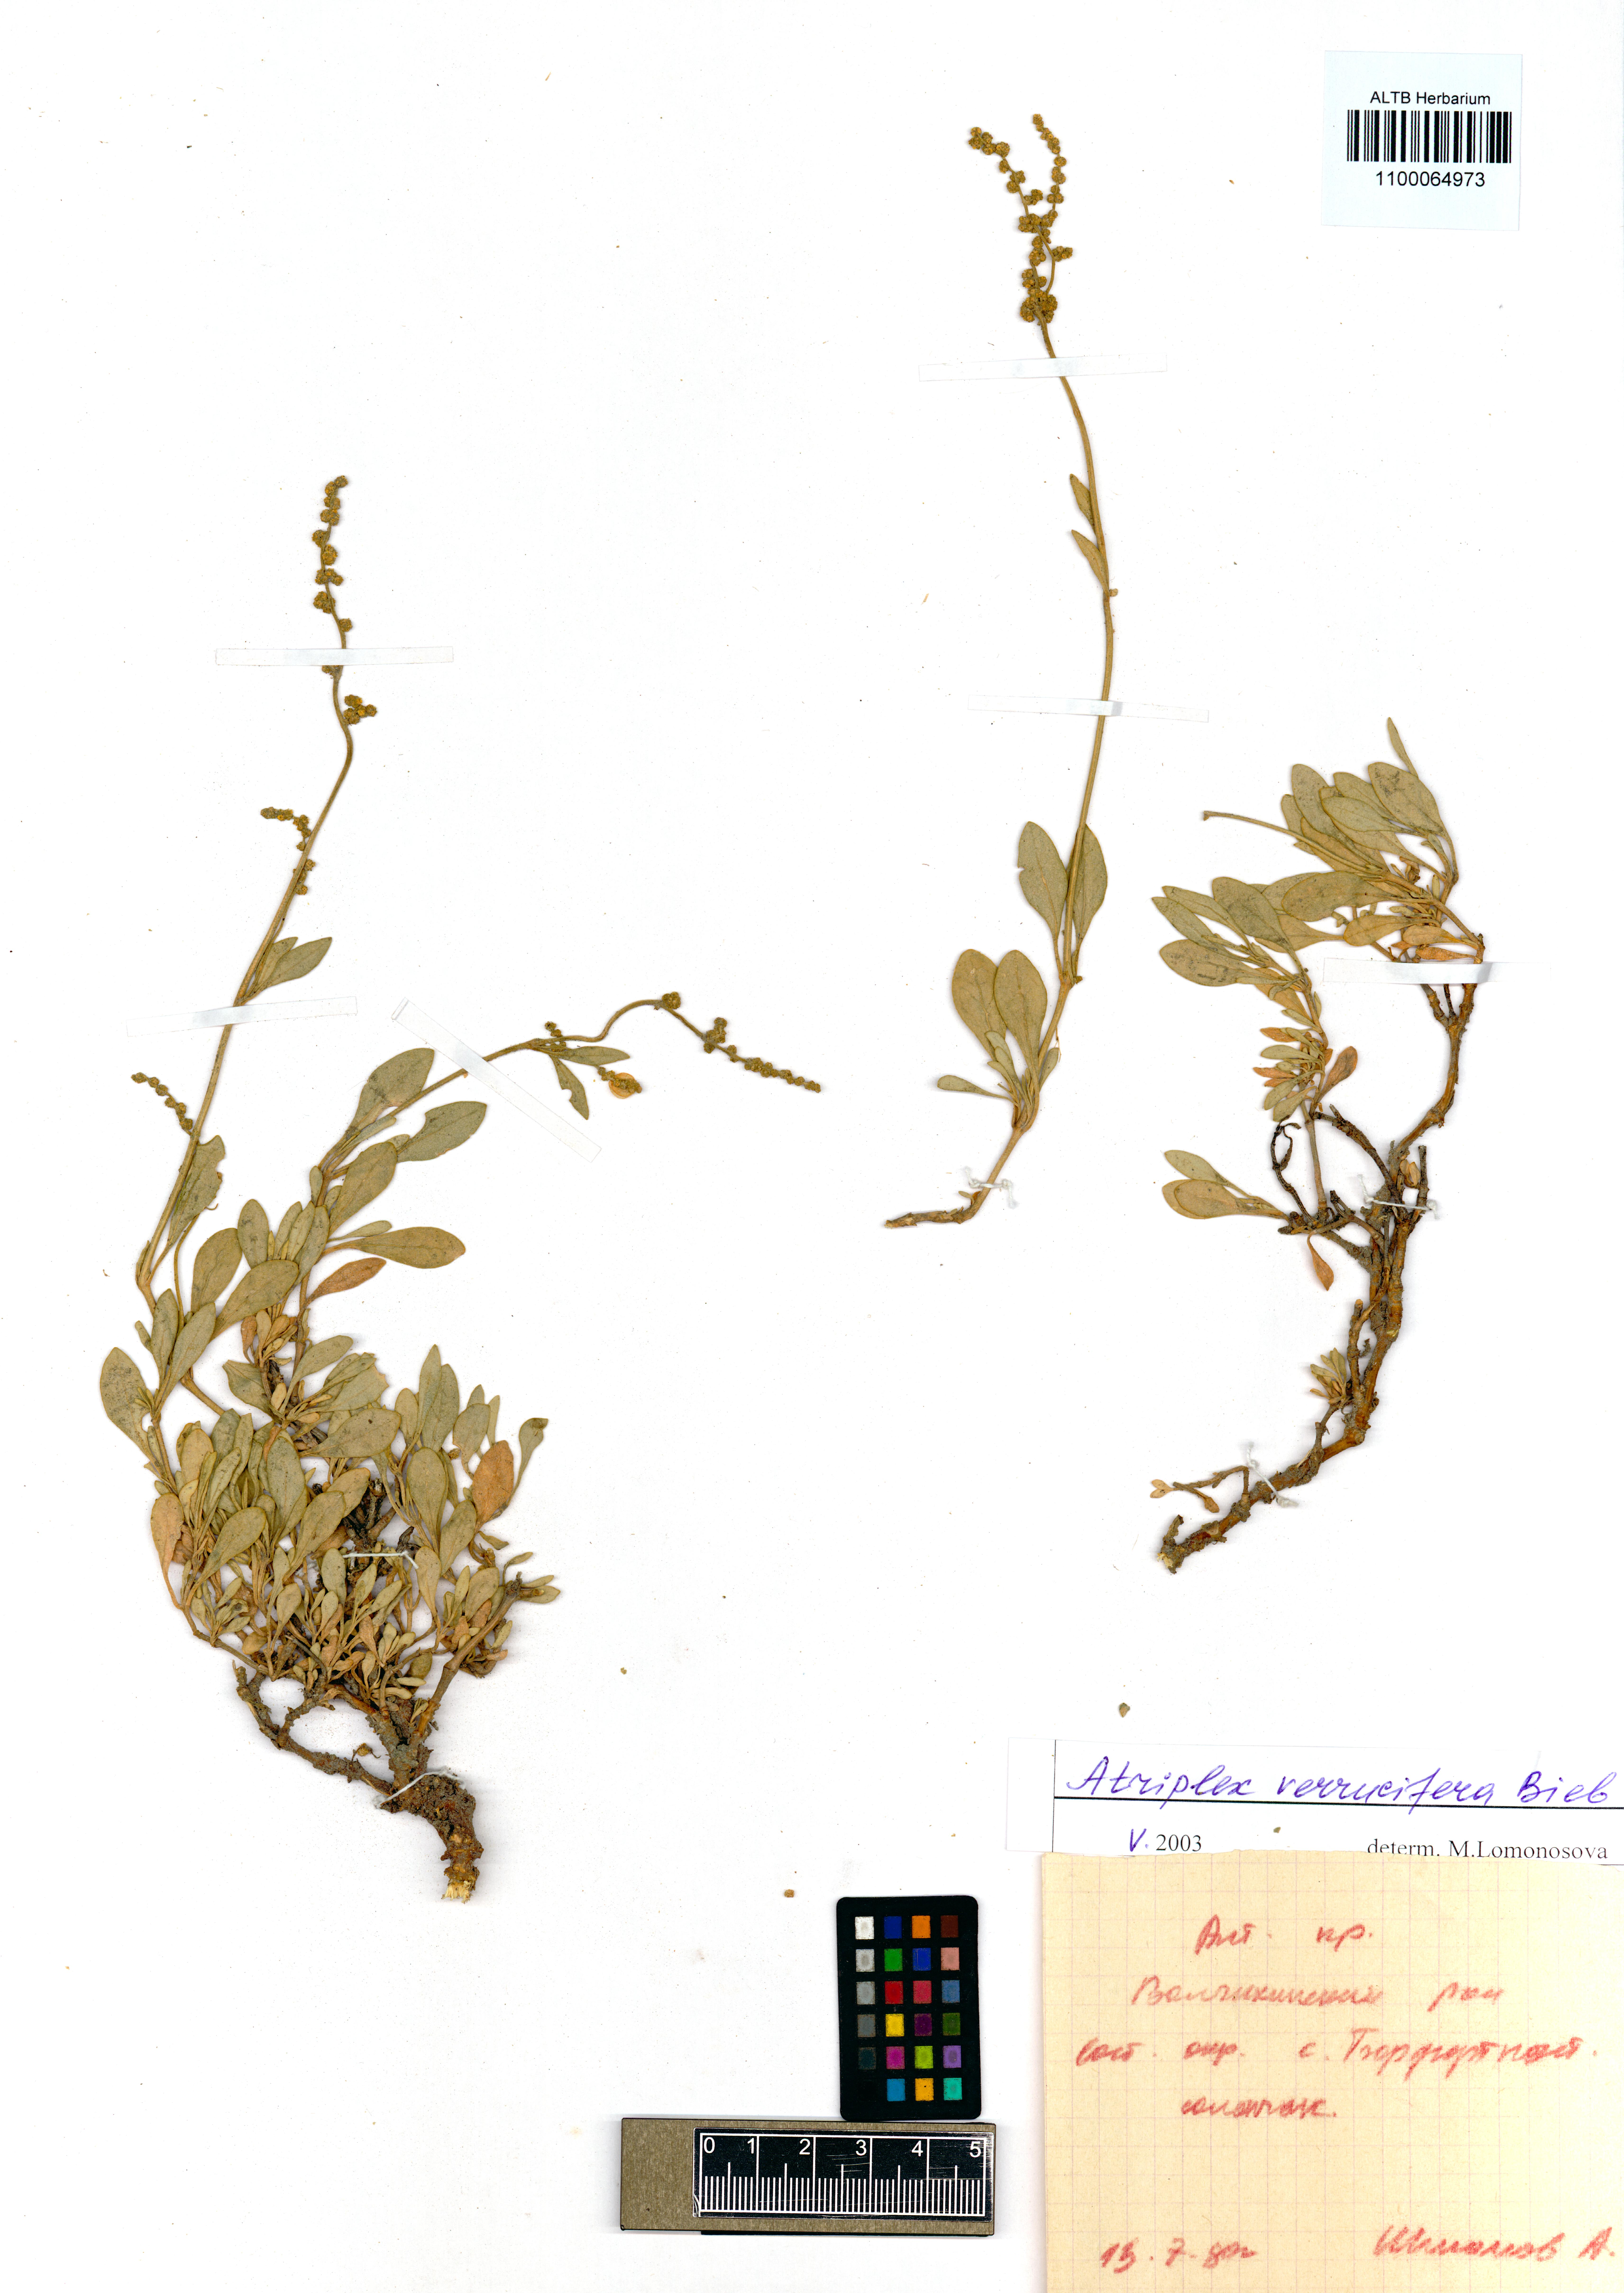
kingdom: Plantae
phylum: Tracheophyta
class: Magnoliopsida
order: Caryophyllales
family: Amaranthaceae
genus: Halimione
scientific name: Halimione verrucifera
